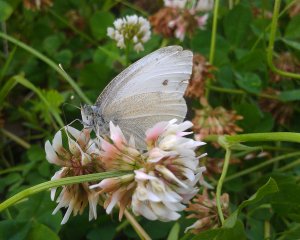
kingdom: Animalia
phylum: Arthropoda
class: Insecta
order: Lepidoptera
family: Pieridae
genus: Pieris
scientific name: Pieris rapae
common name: Cabbage White
